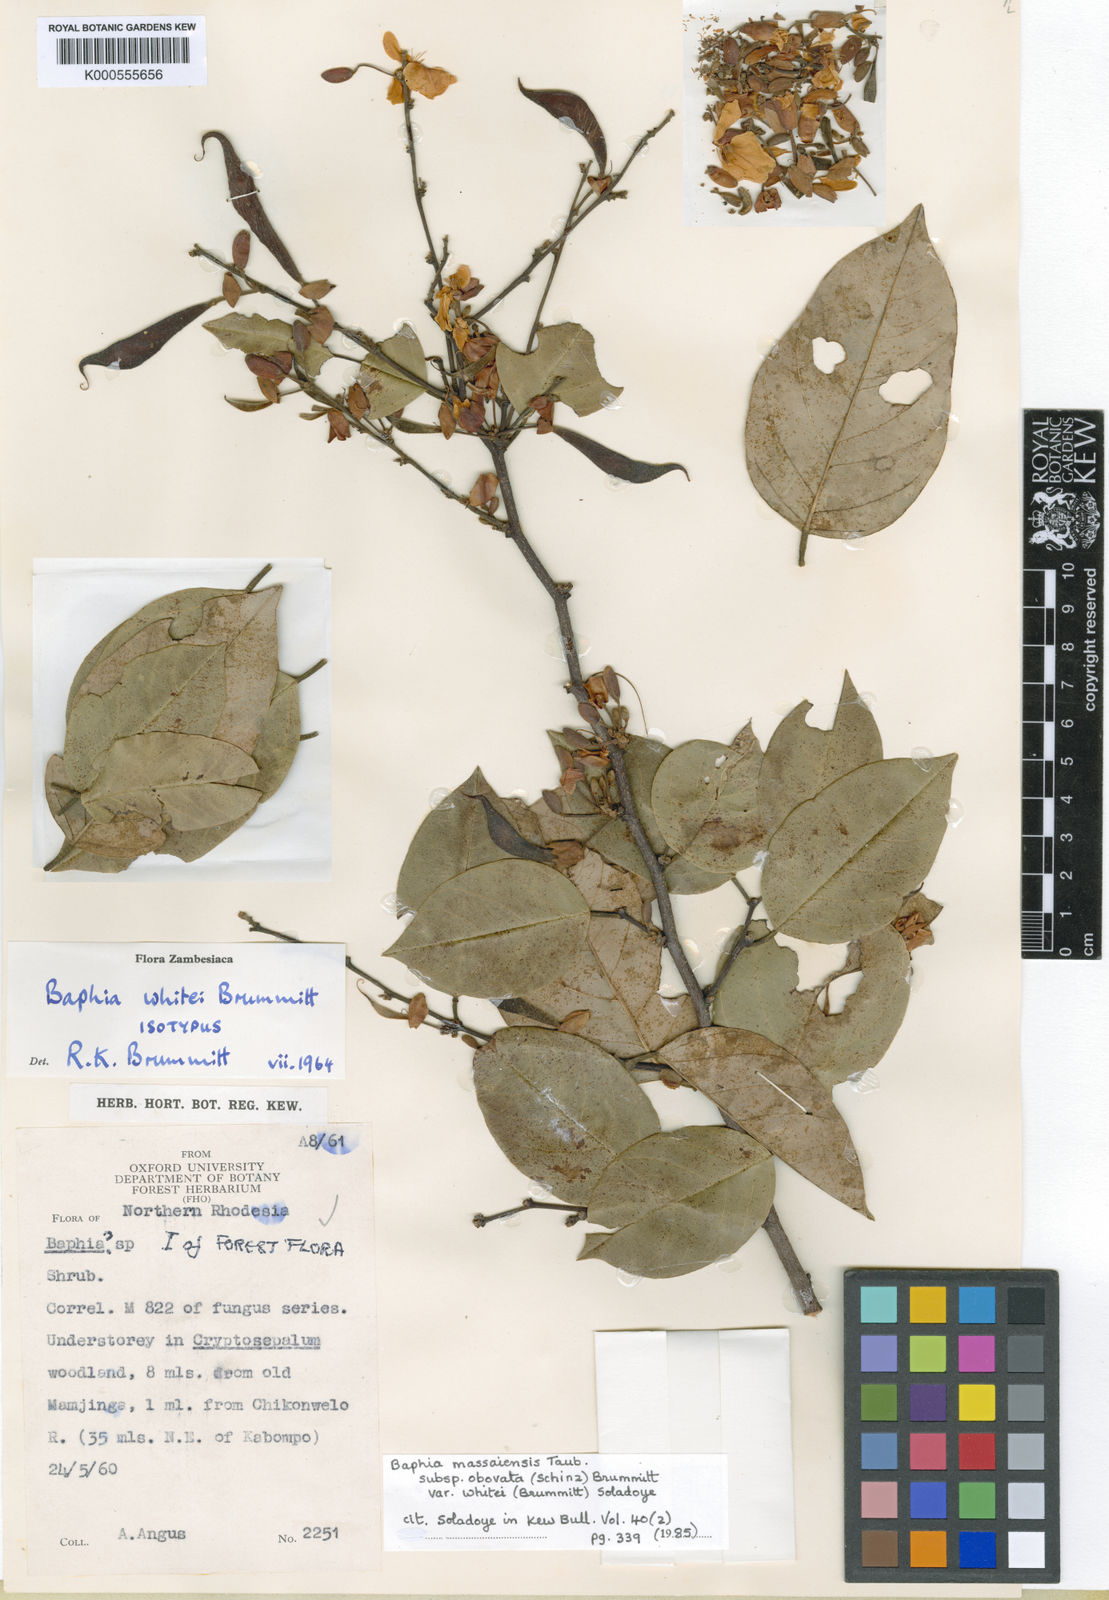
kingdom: Plantae
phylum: Tracheophyta
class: Magnoliopsida
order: Fabales
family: Fabaceae
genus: Baphia
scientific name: Baphia massaiensis
